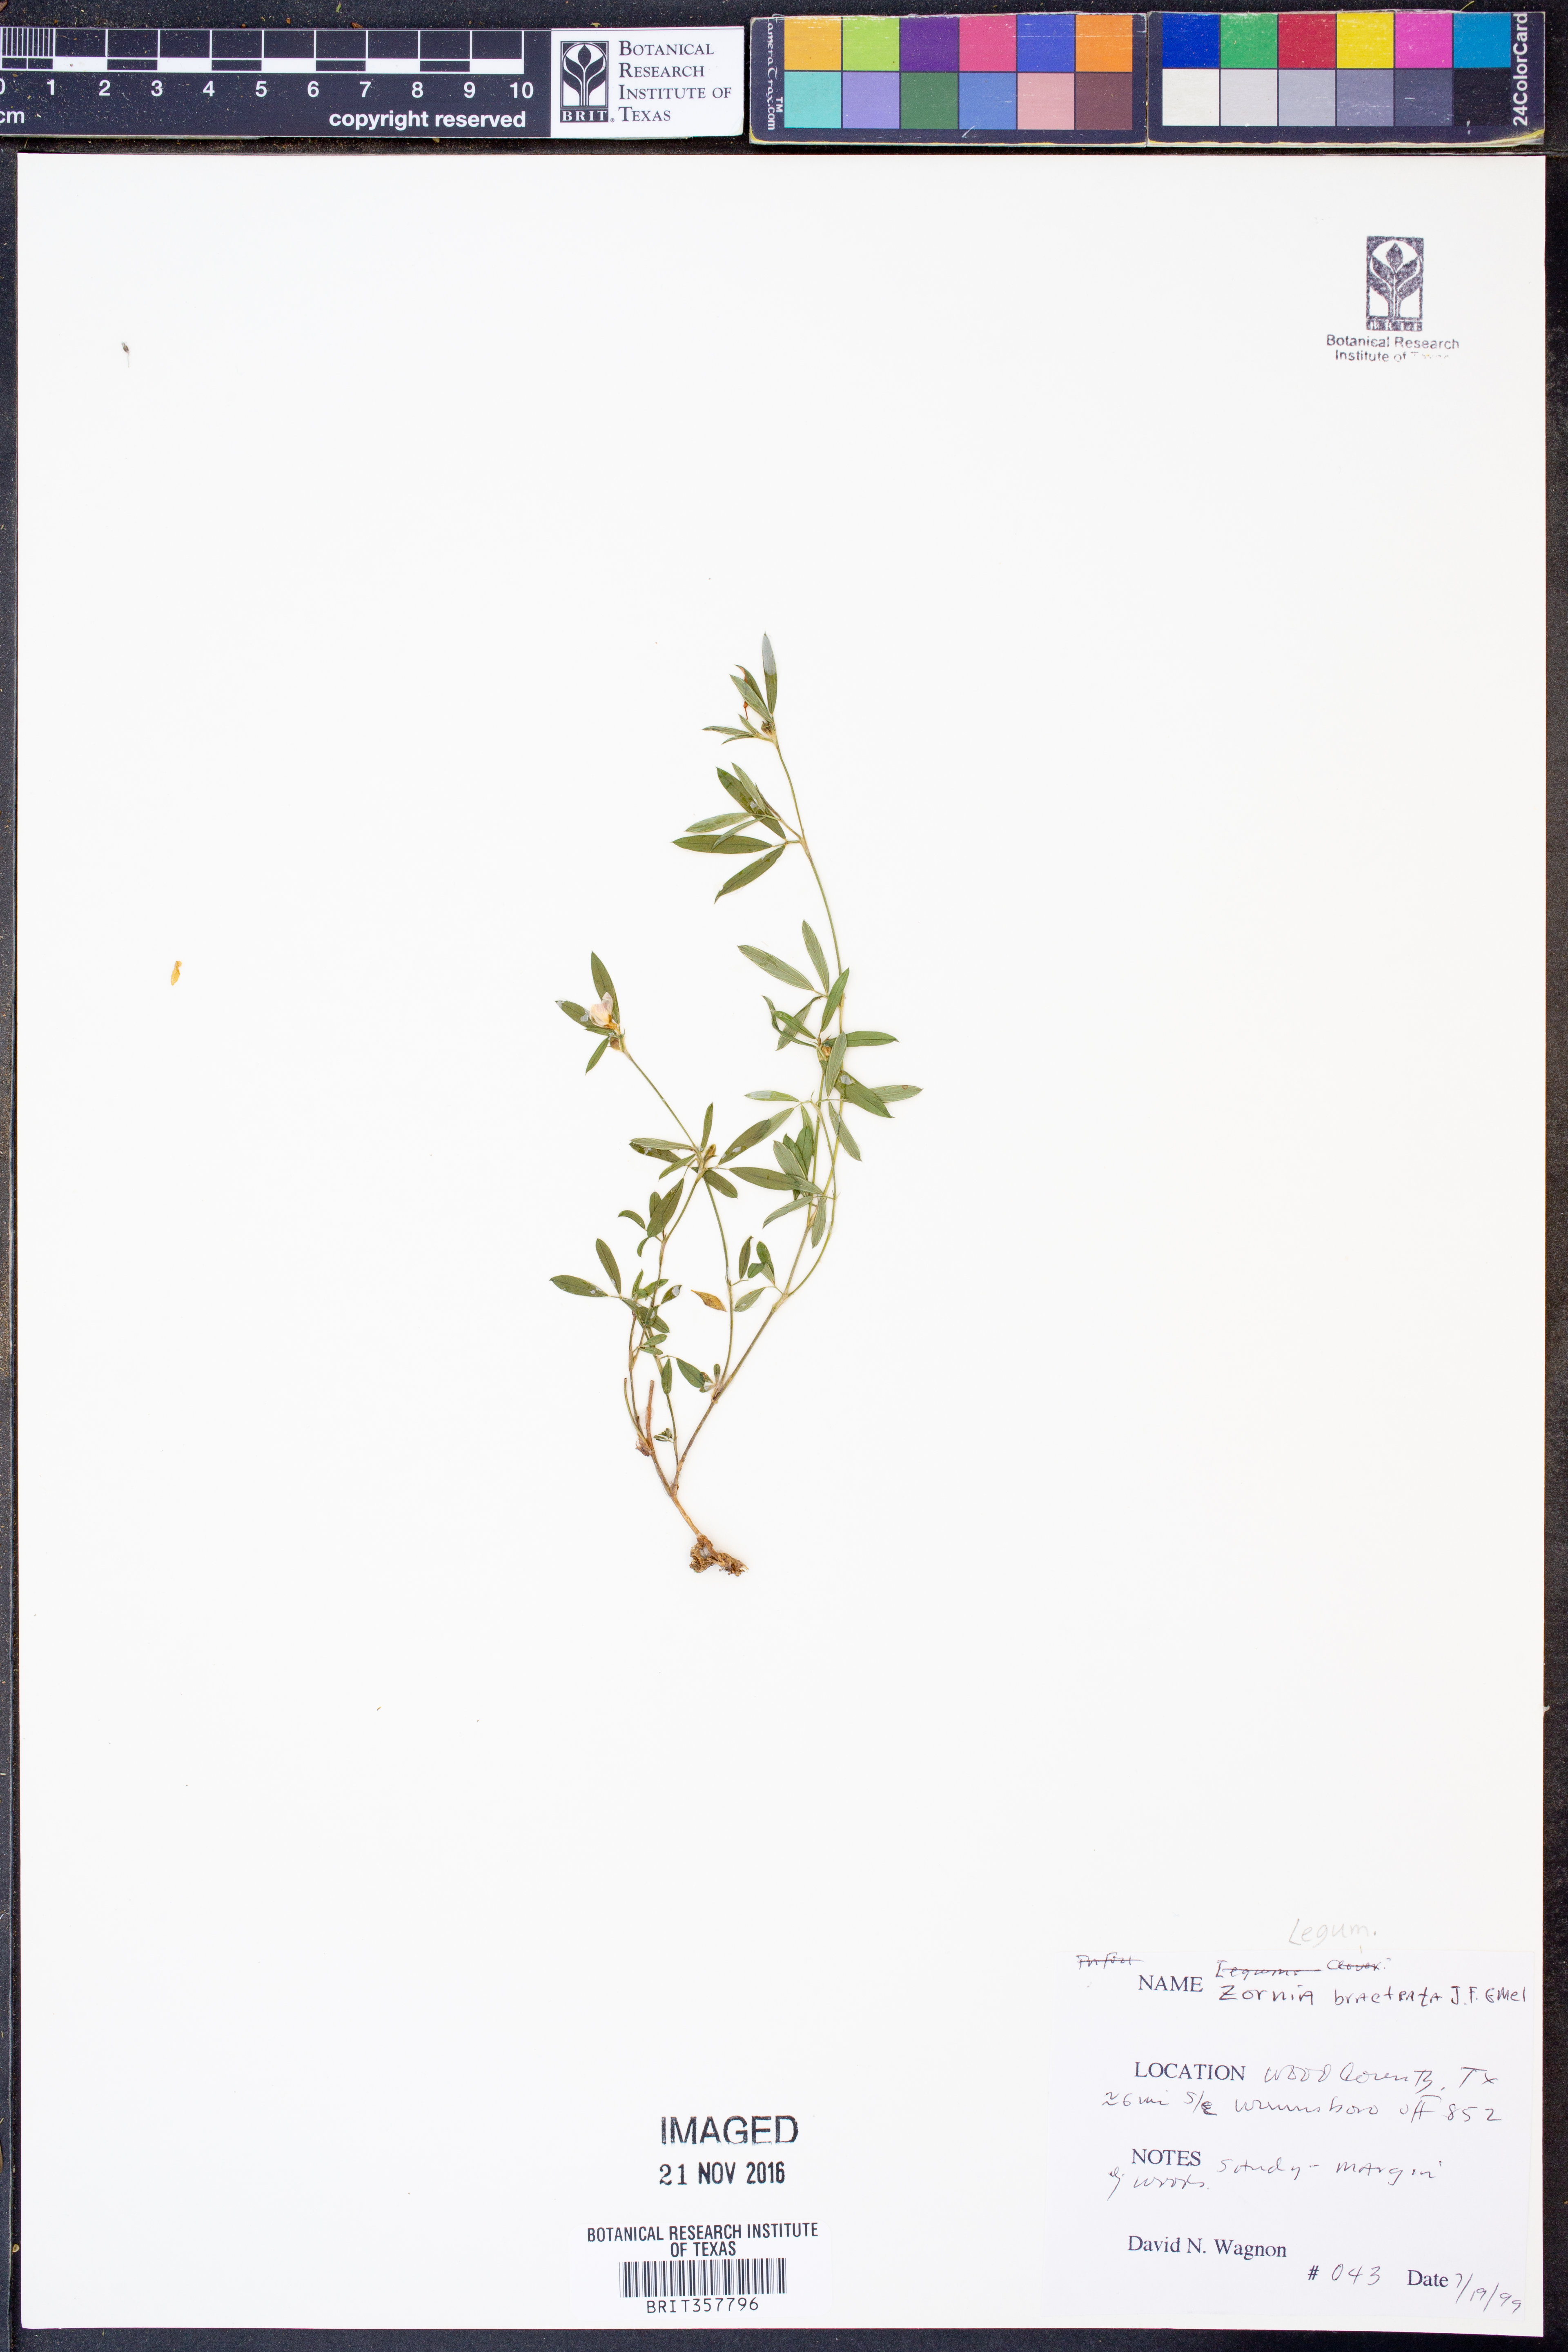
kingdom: Plantae
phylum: Tracheophyta
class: Magnoliopsida
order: Fabales
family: Fabaceae
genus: Zornia
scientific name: Zornia bracteata
